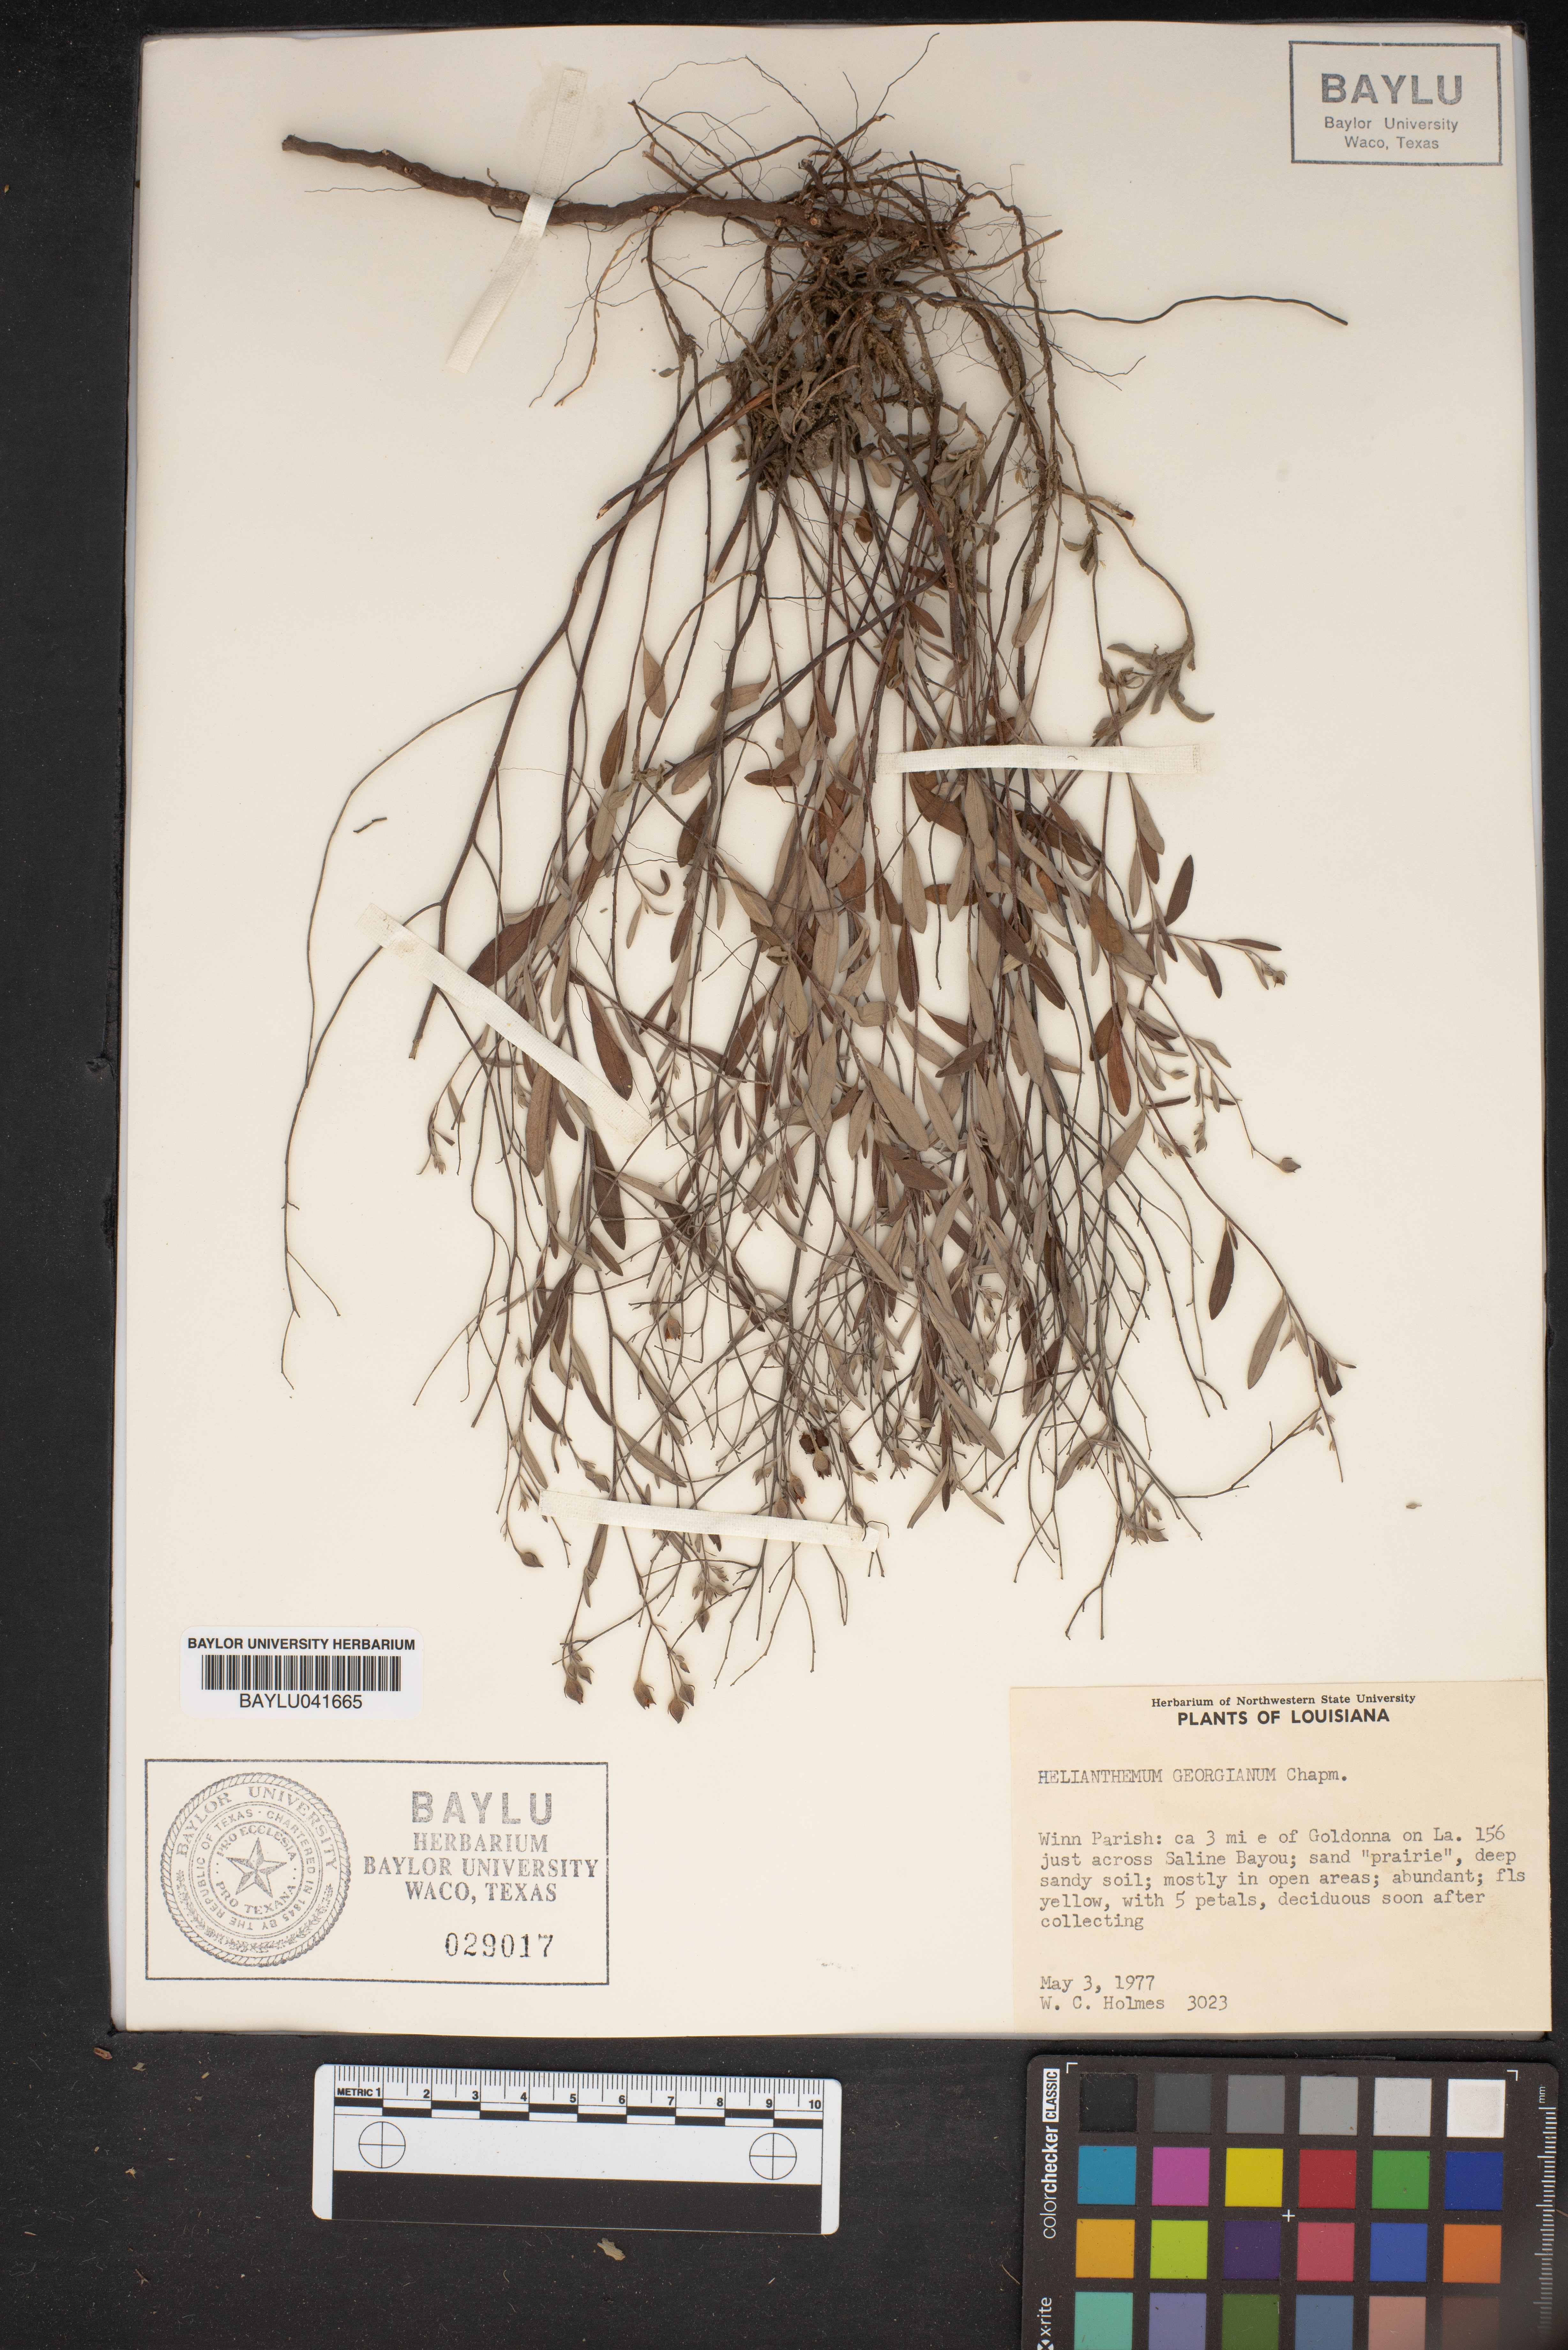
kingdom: Plantae
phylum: Tracheophyta
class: Magnoliopsida
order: Malvales
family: Cistaceae
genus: Crocanthemum
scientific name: Crocanthemum georgianum
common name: Georgia frostweed
